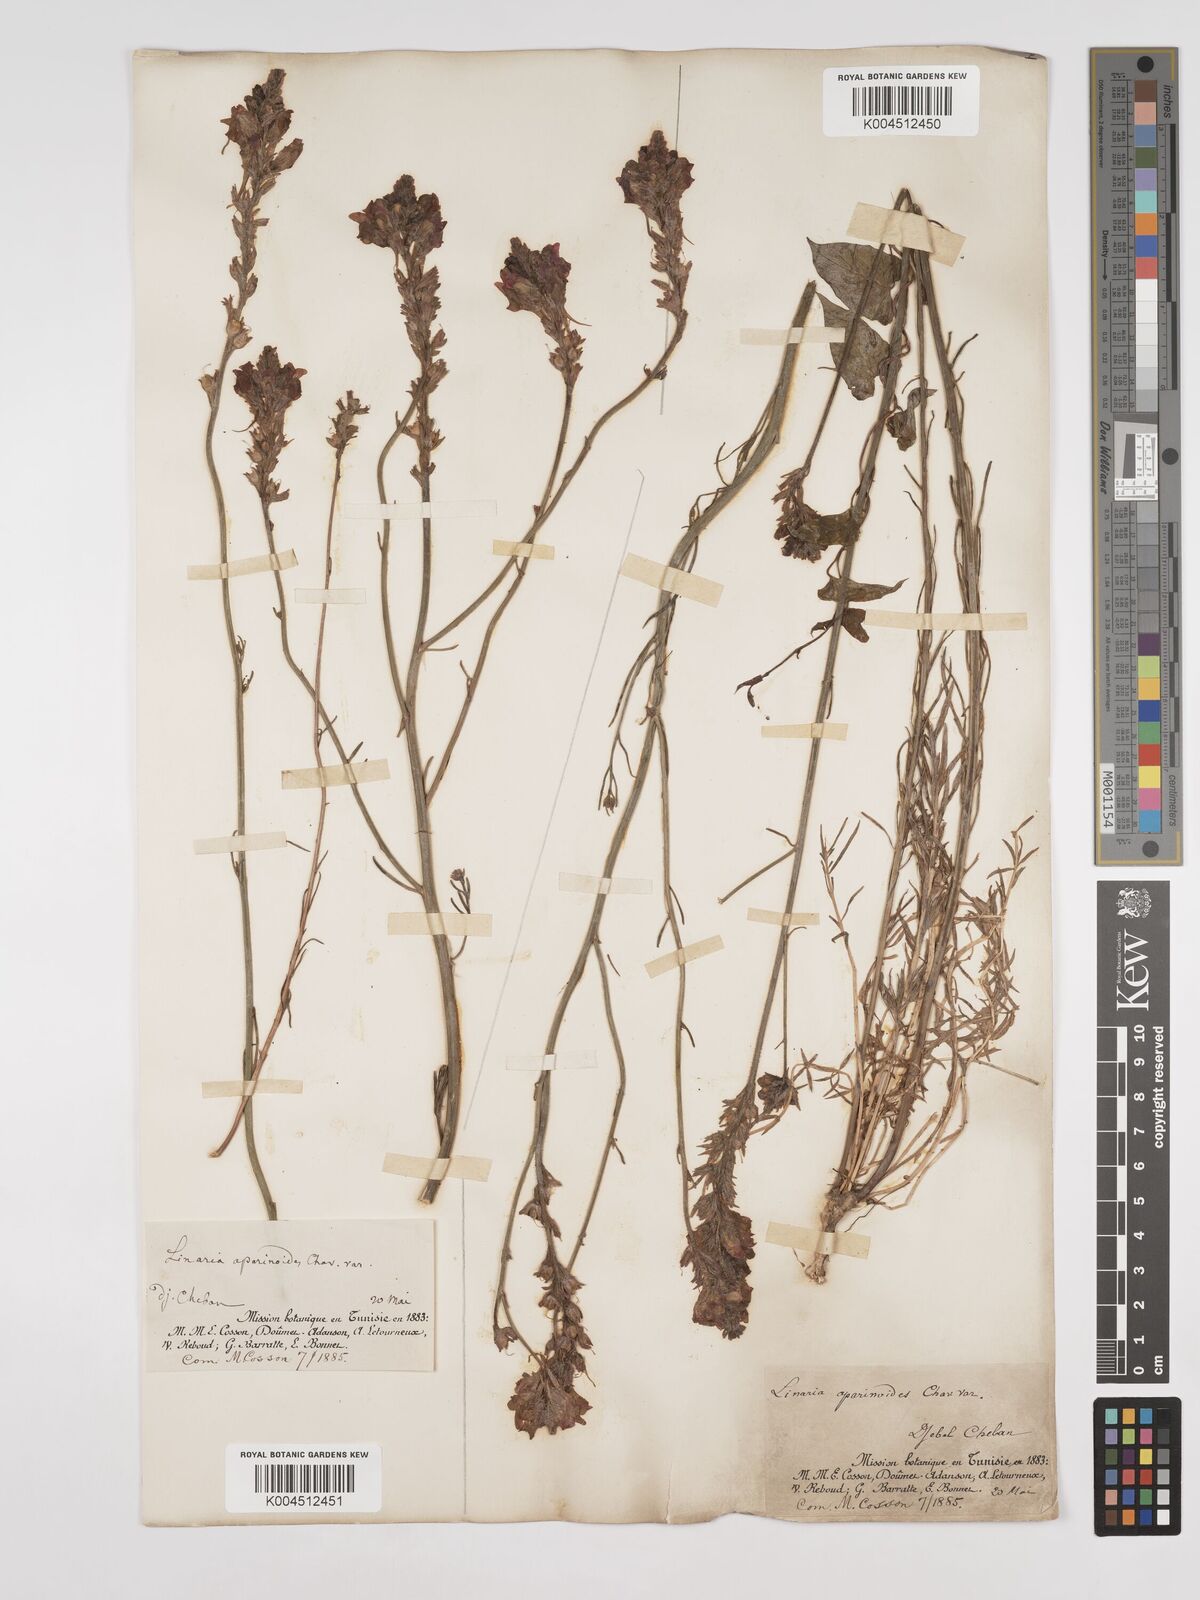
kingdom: Plantae
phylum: Tracheophyta
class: Magnoliopsida
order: Lamiales
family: Plantaginaceae
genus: Linaria
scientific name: Linaria multicaulis
